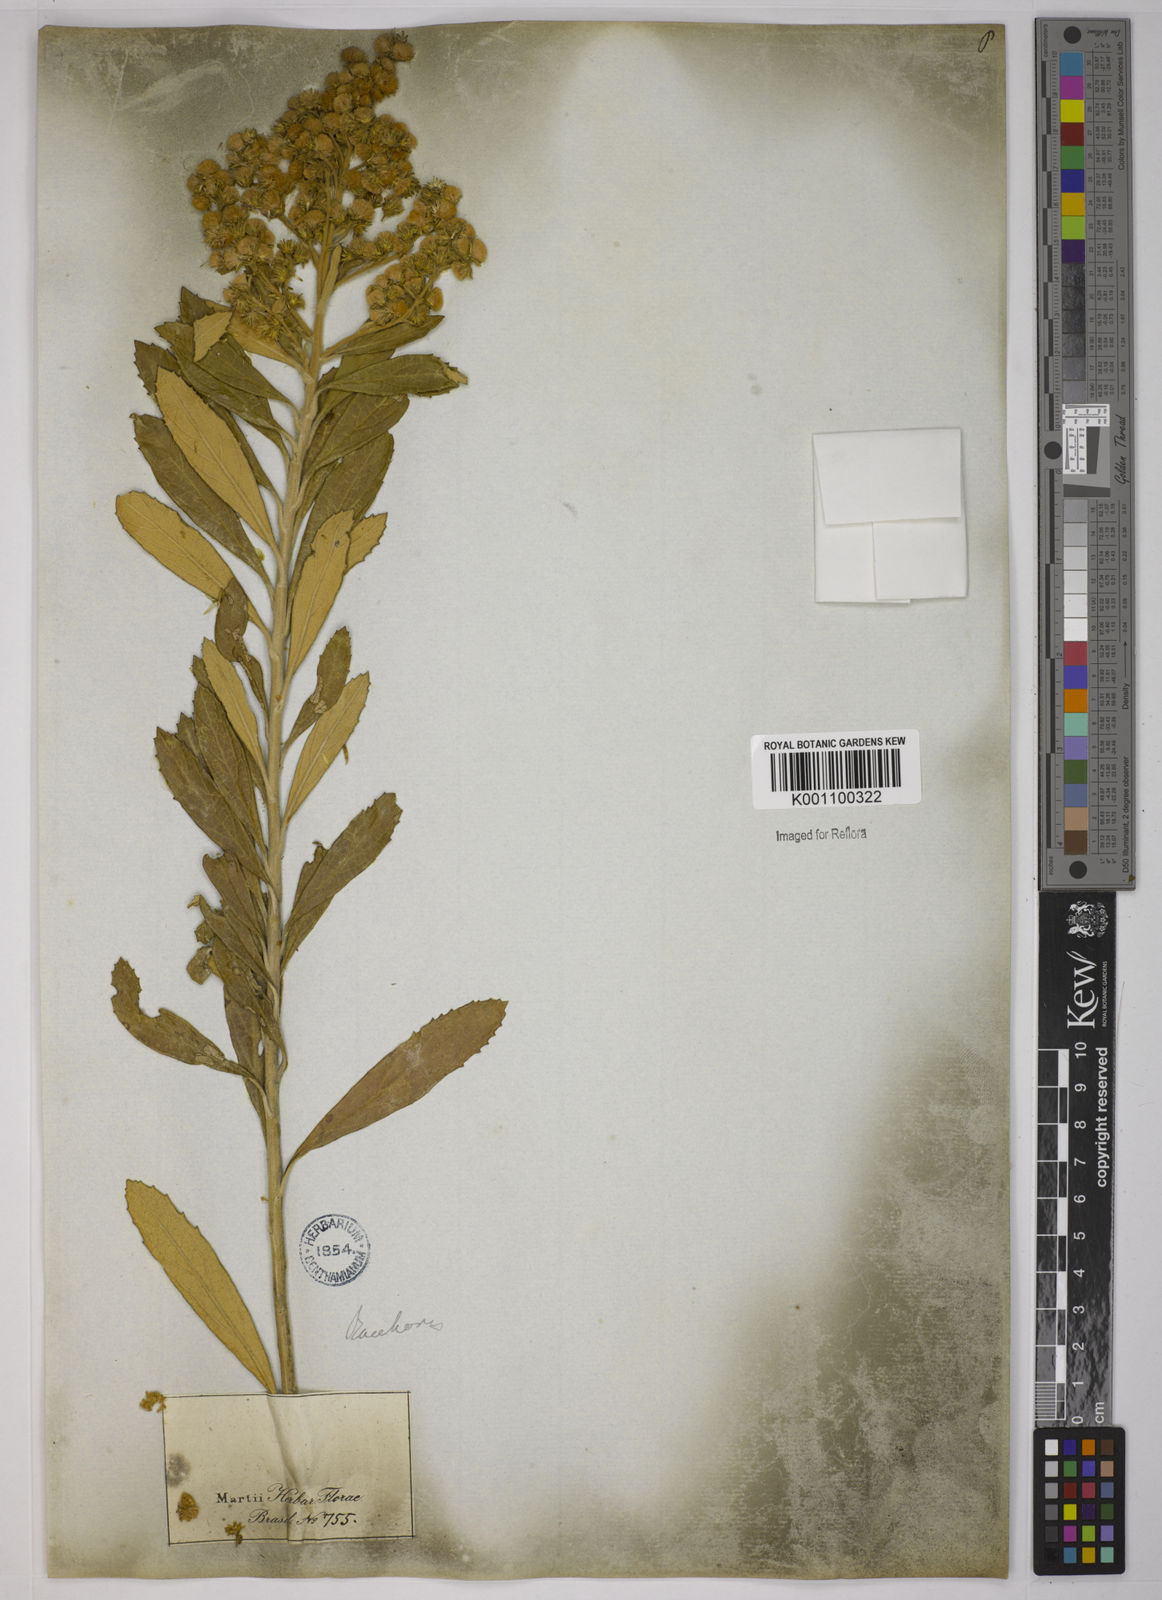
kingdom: Plantae
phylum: Tracheophyta
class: Magnoliopsida
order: Asterales
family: Asteraceae
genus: Baccharis
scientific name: Baccharis
